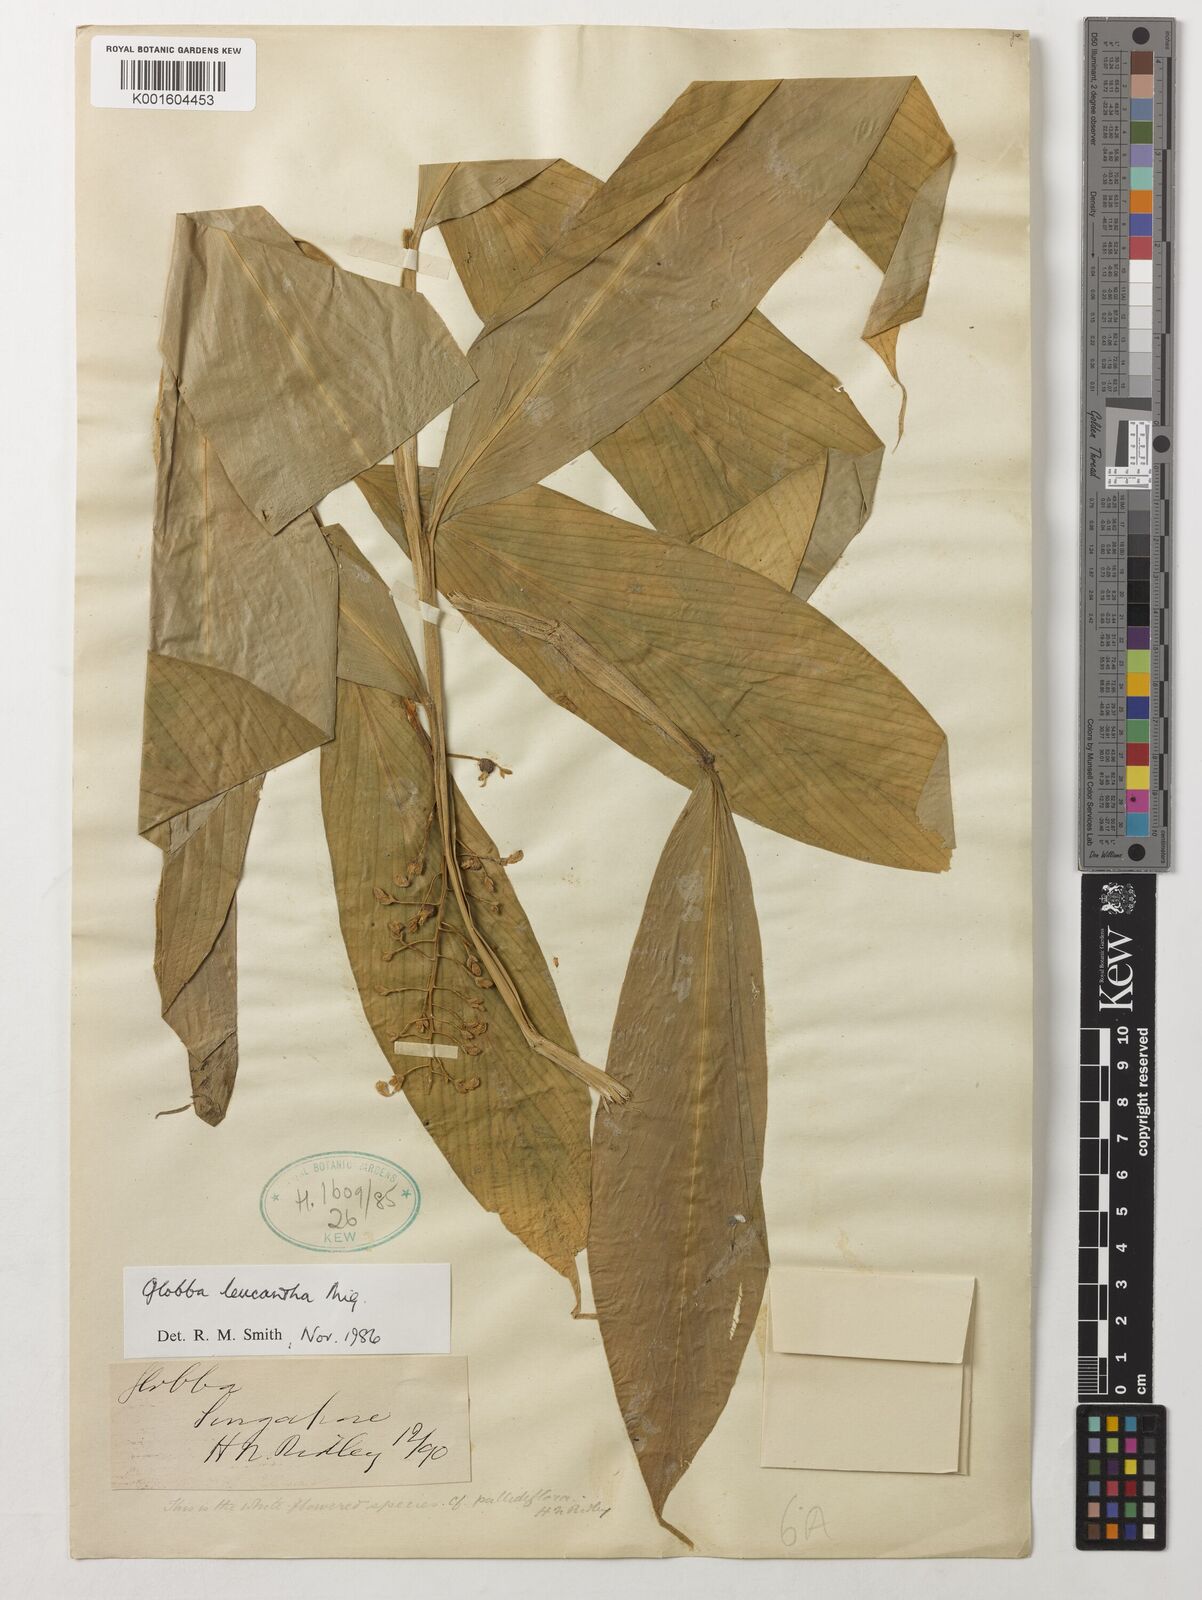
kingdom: Plantae
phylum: Tracheophyta
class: Liliopsida
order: Zingiberales
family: Zingiberaceae
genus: Globba
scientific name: Globba leucantha
